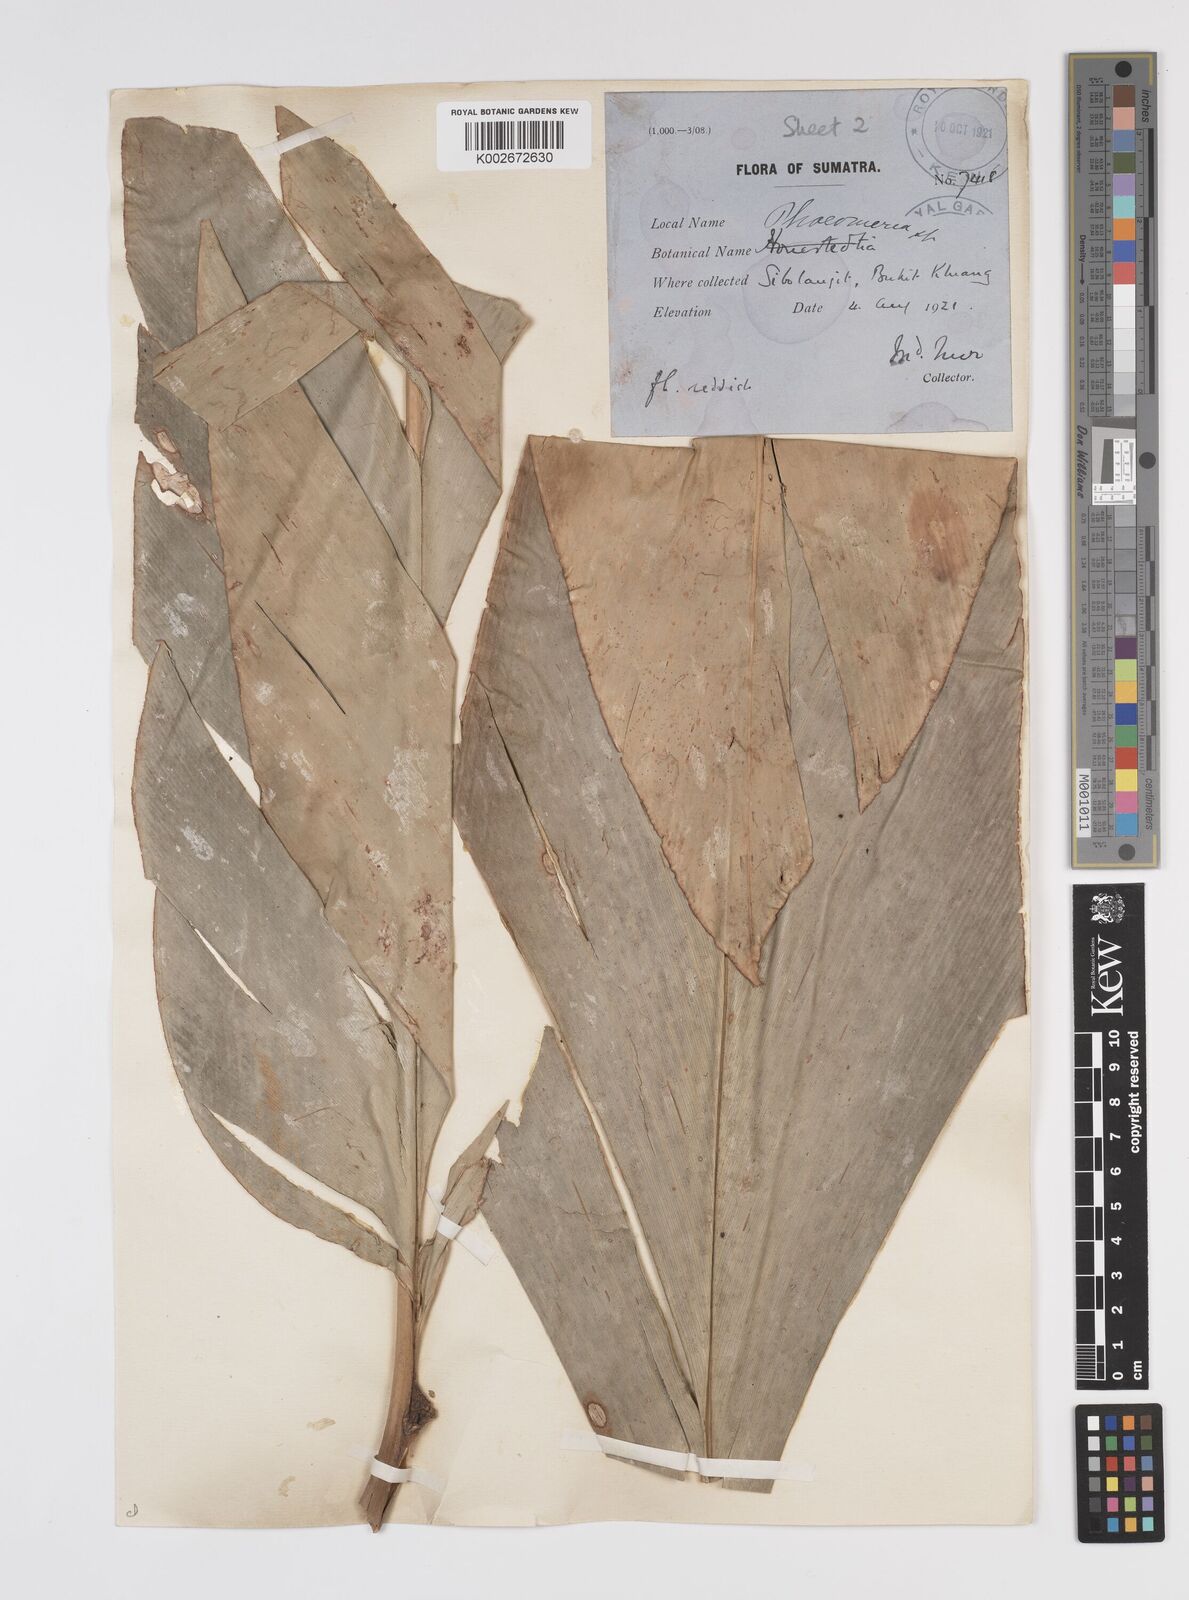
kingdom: Plantae
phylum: Tracheophyta
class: Liliopsida
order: Zingiberales
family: Zingiberaceae
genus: Etlingera
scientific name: Etlingera elatior
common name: Philippine waxflower
